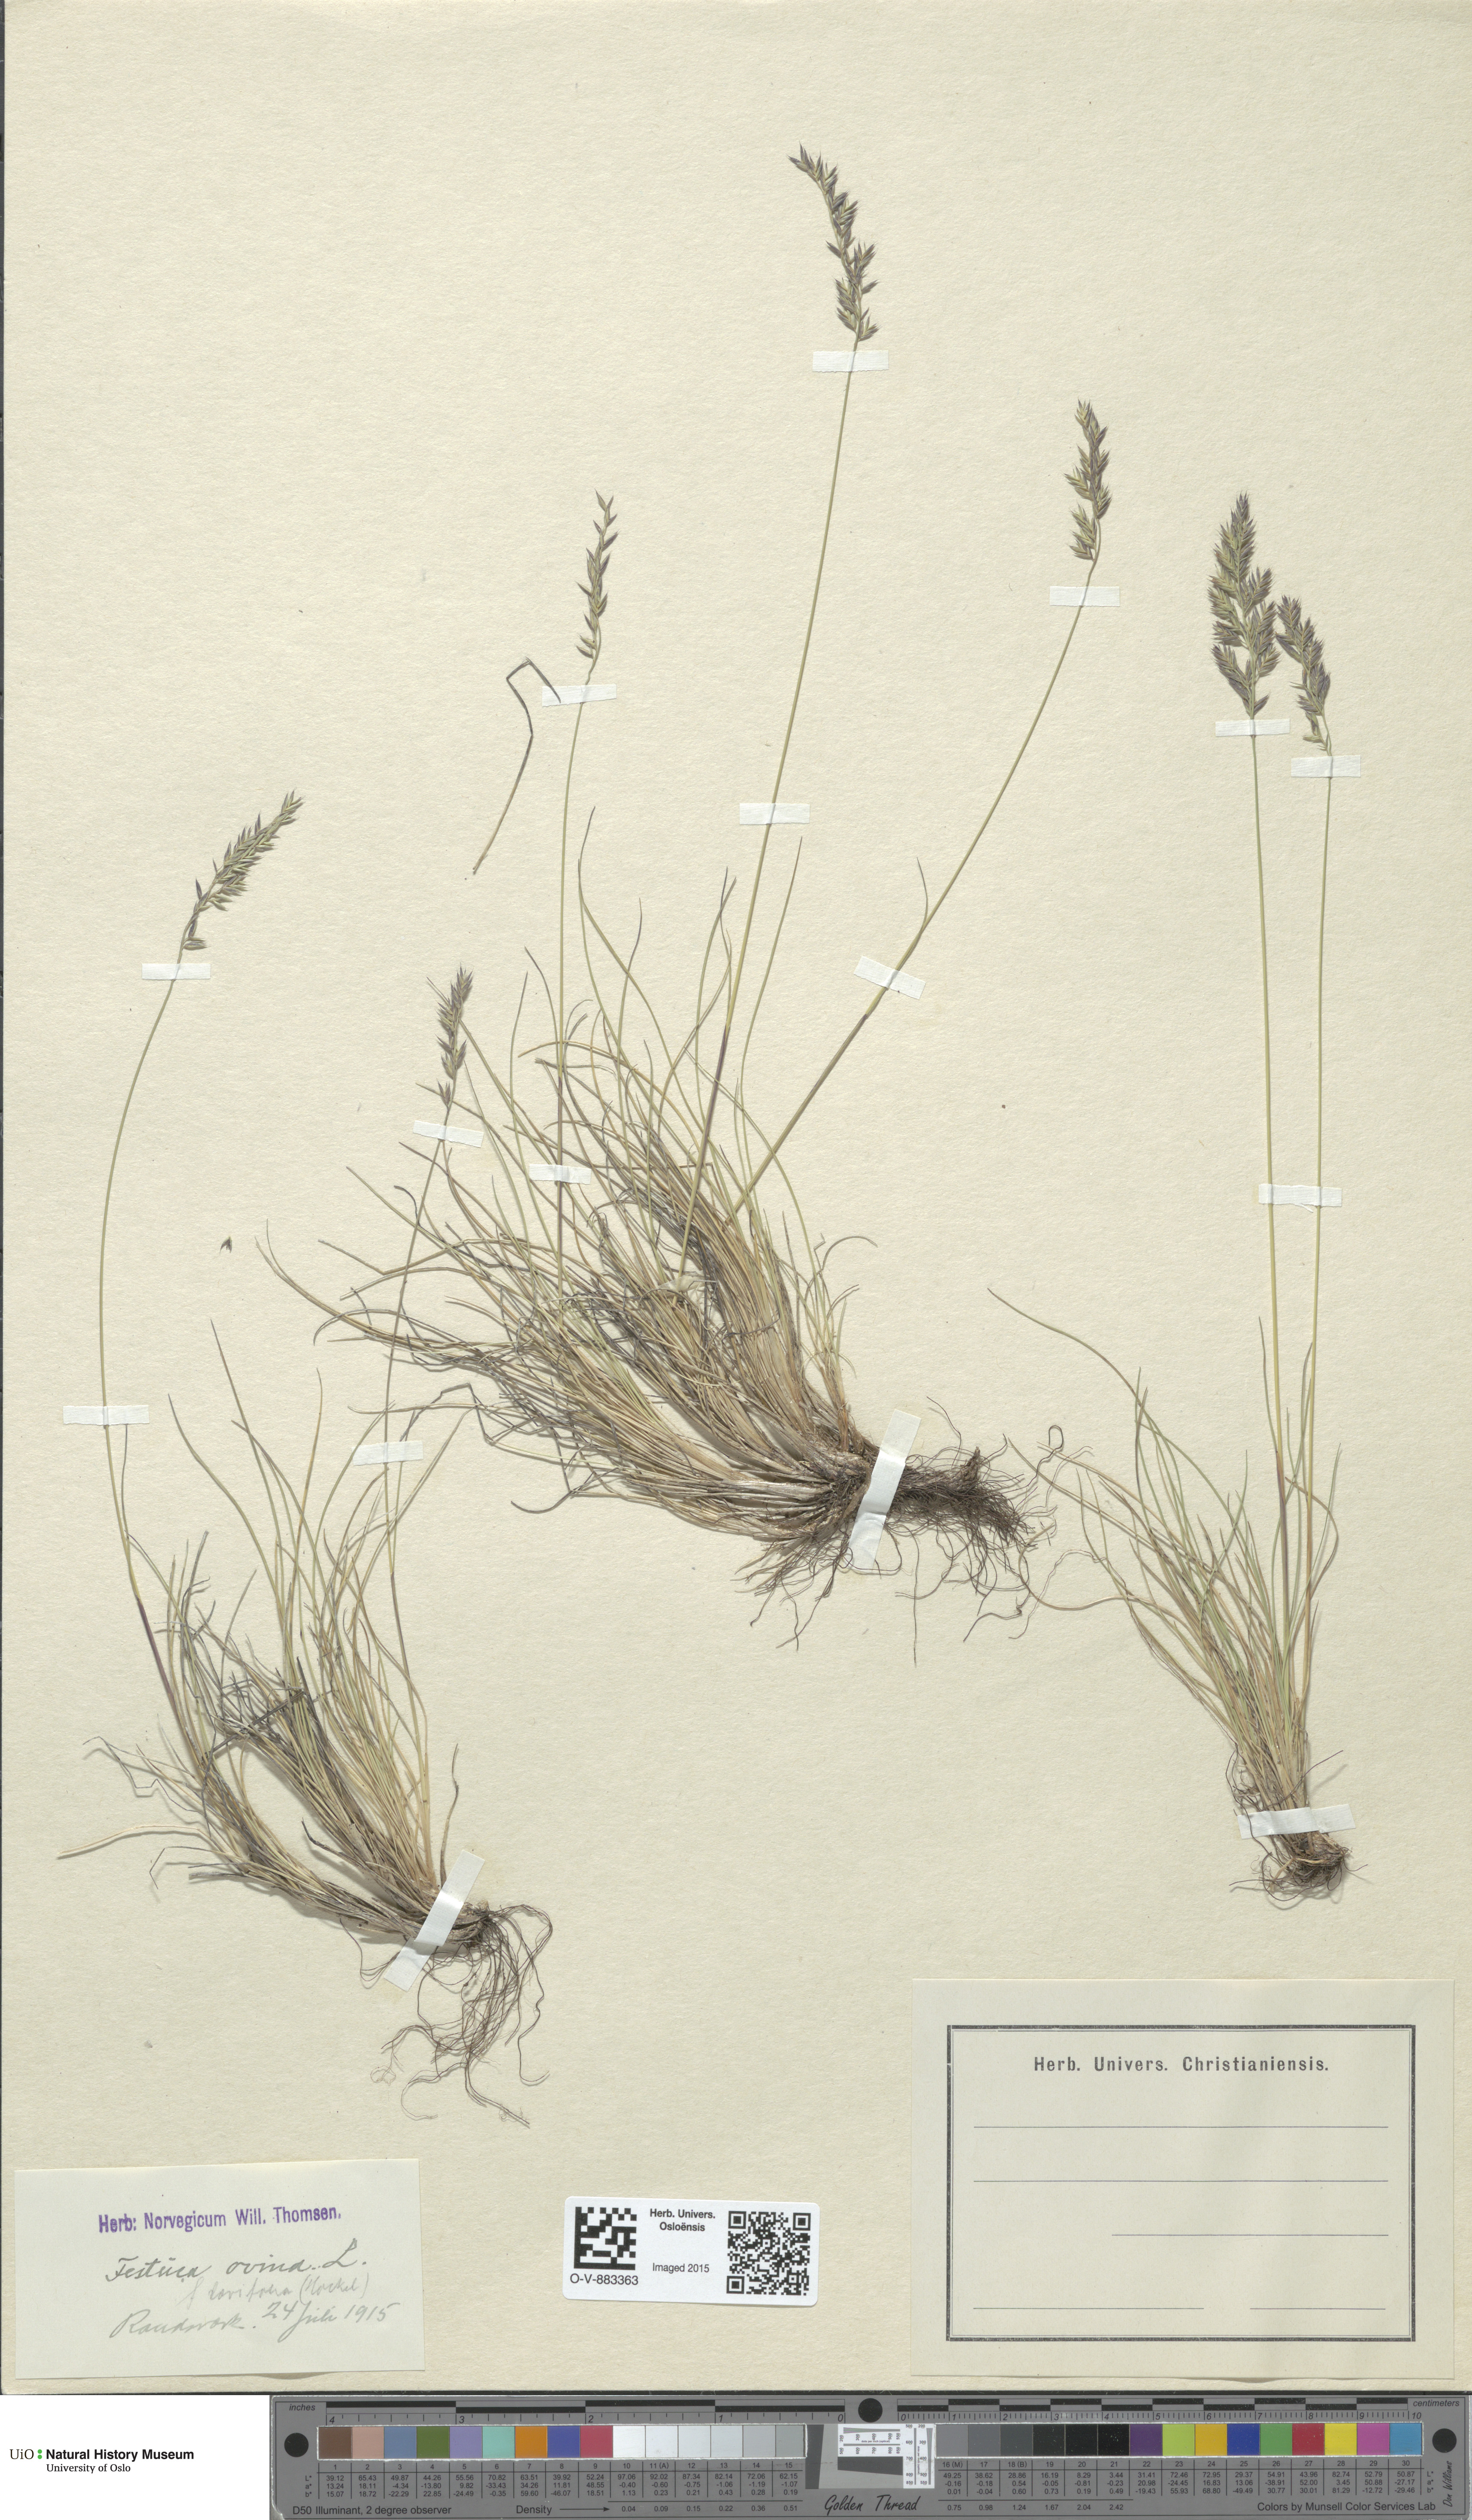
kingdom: Plantae
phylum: Tracheophyta
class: Liliopsida
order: Poales
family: Poaceae
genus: Festuca
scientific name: Festuca ovina
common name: Sheep fescue
